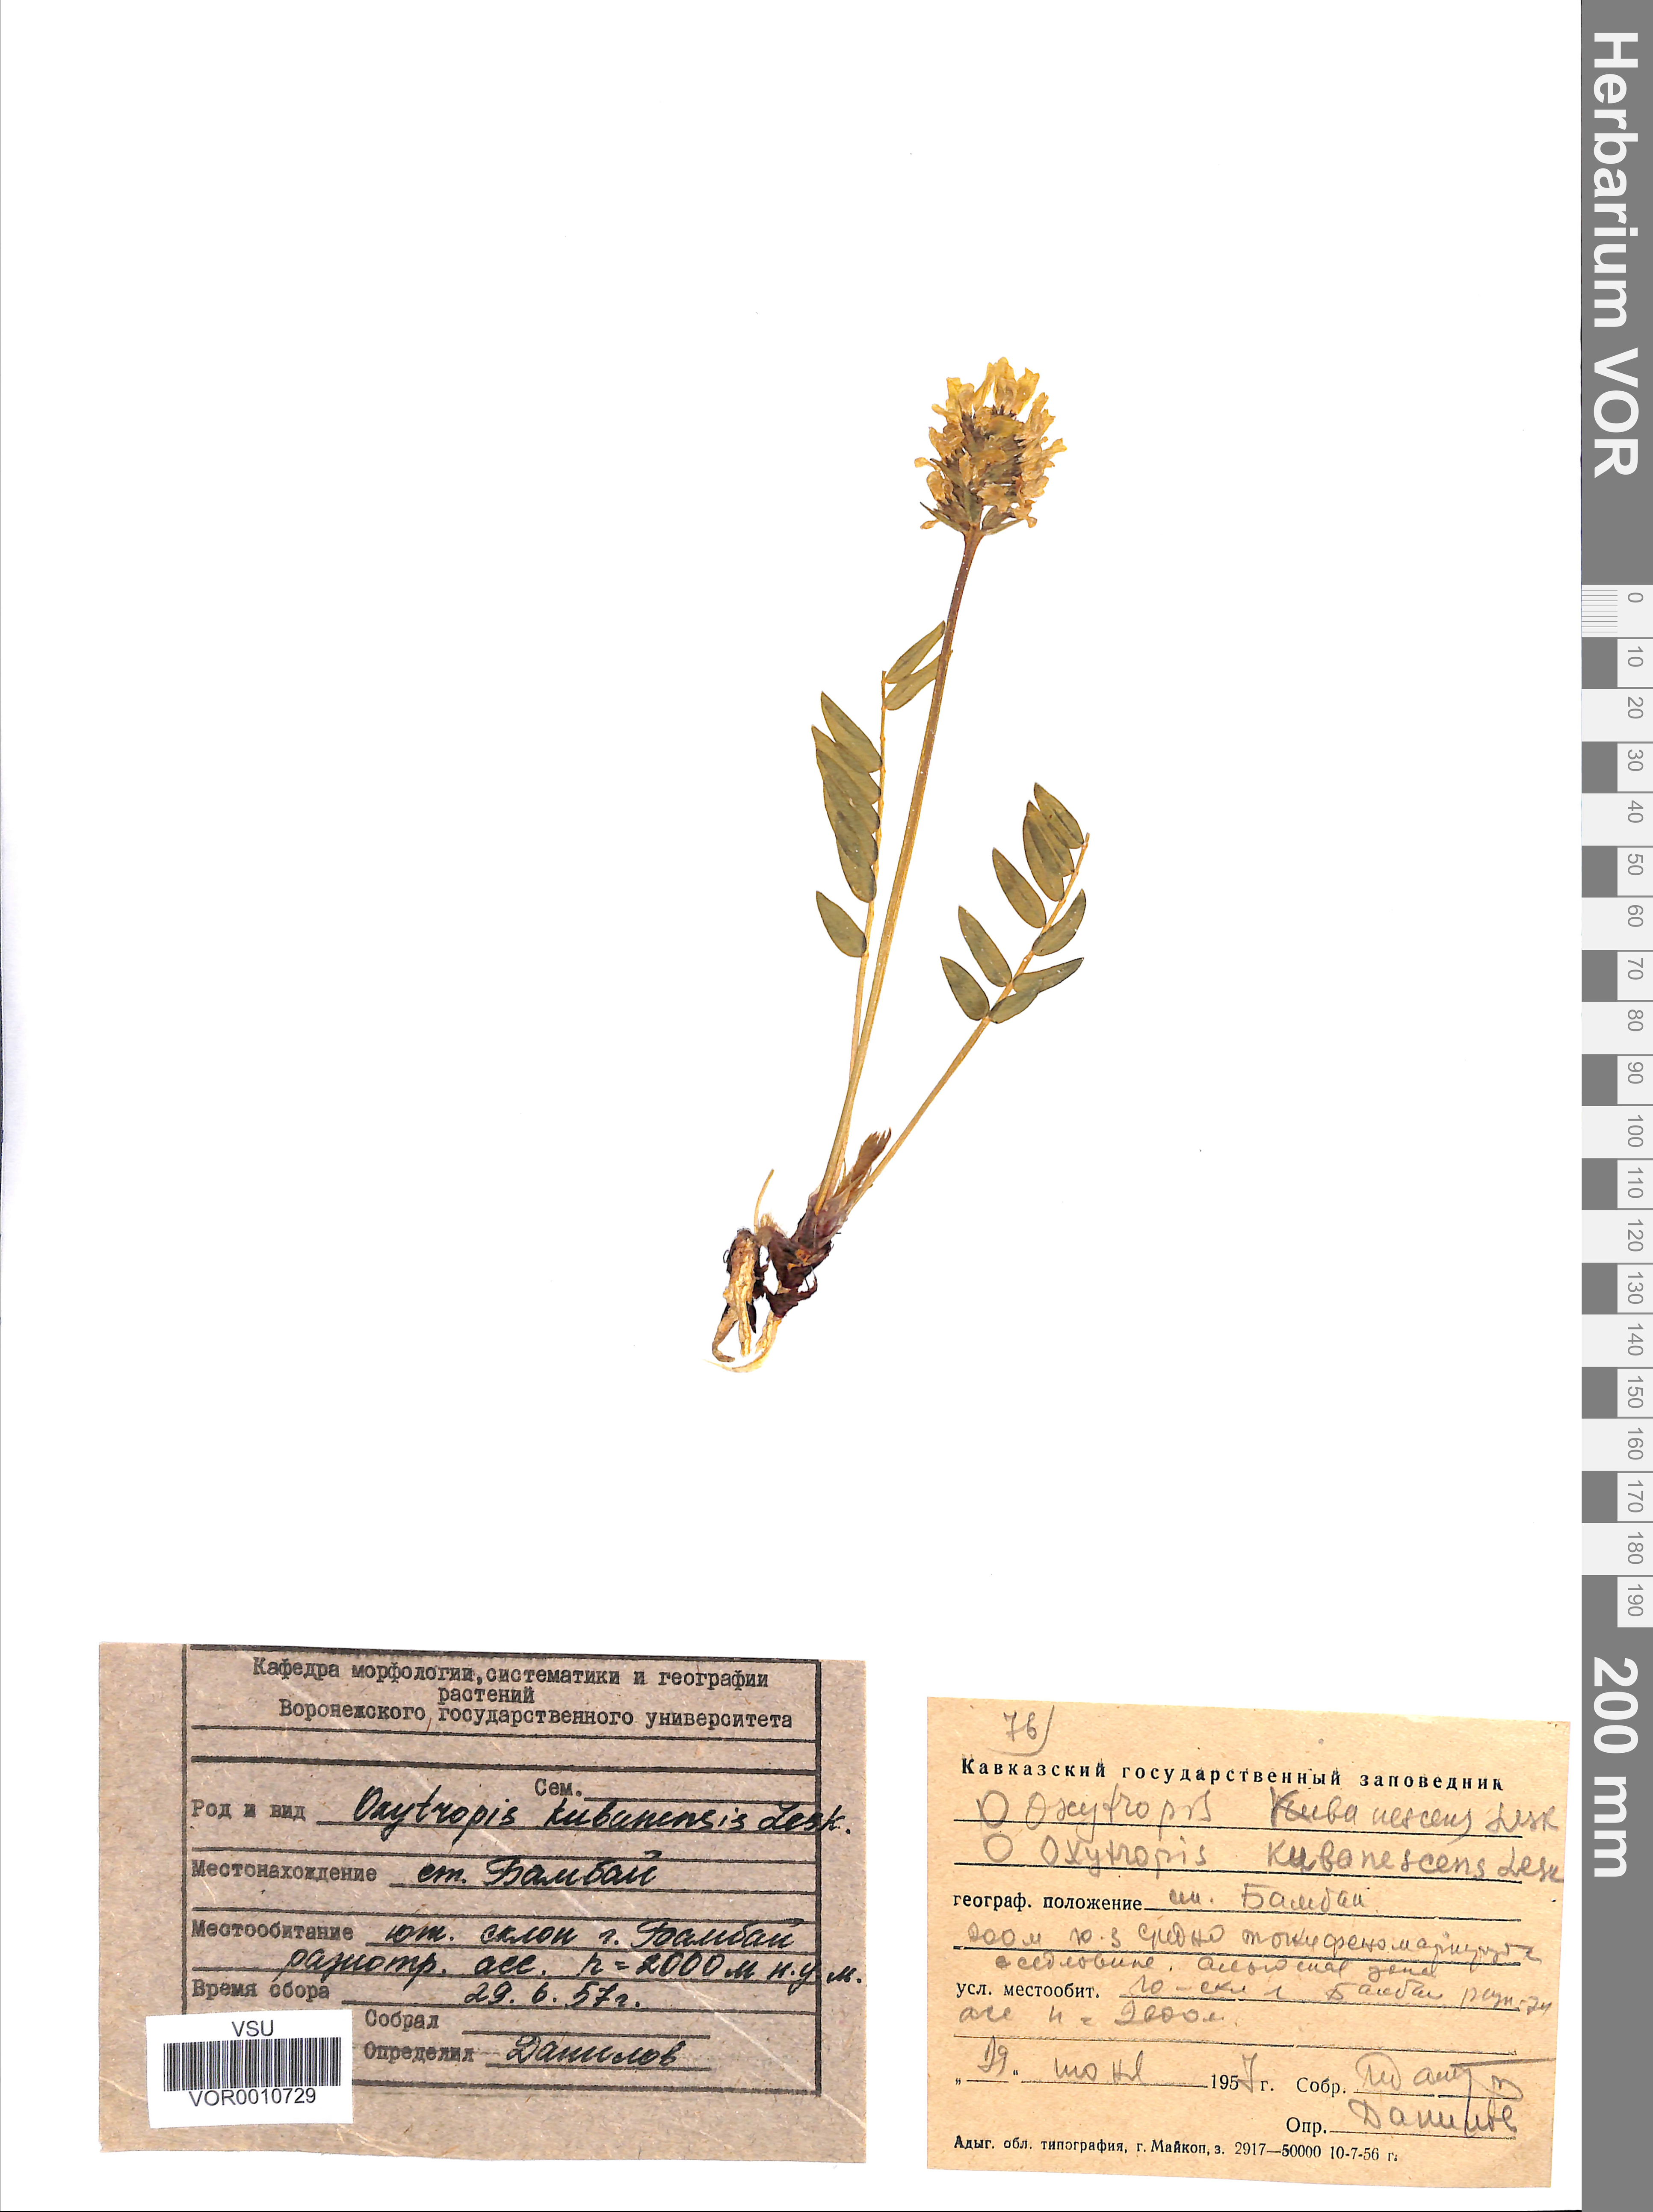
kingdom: Plantae
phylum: Tracheophyta
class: Magnoliopsida
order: Fabales
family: Fabaceae
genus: Oxytropis
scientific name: Oxytropis kubanensis
